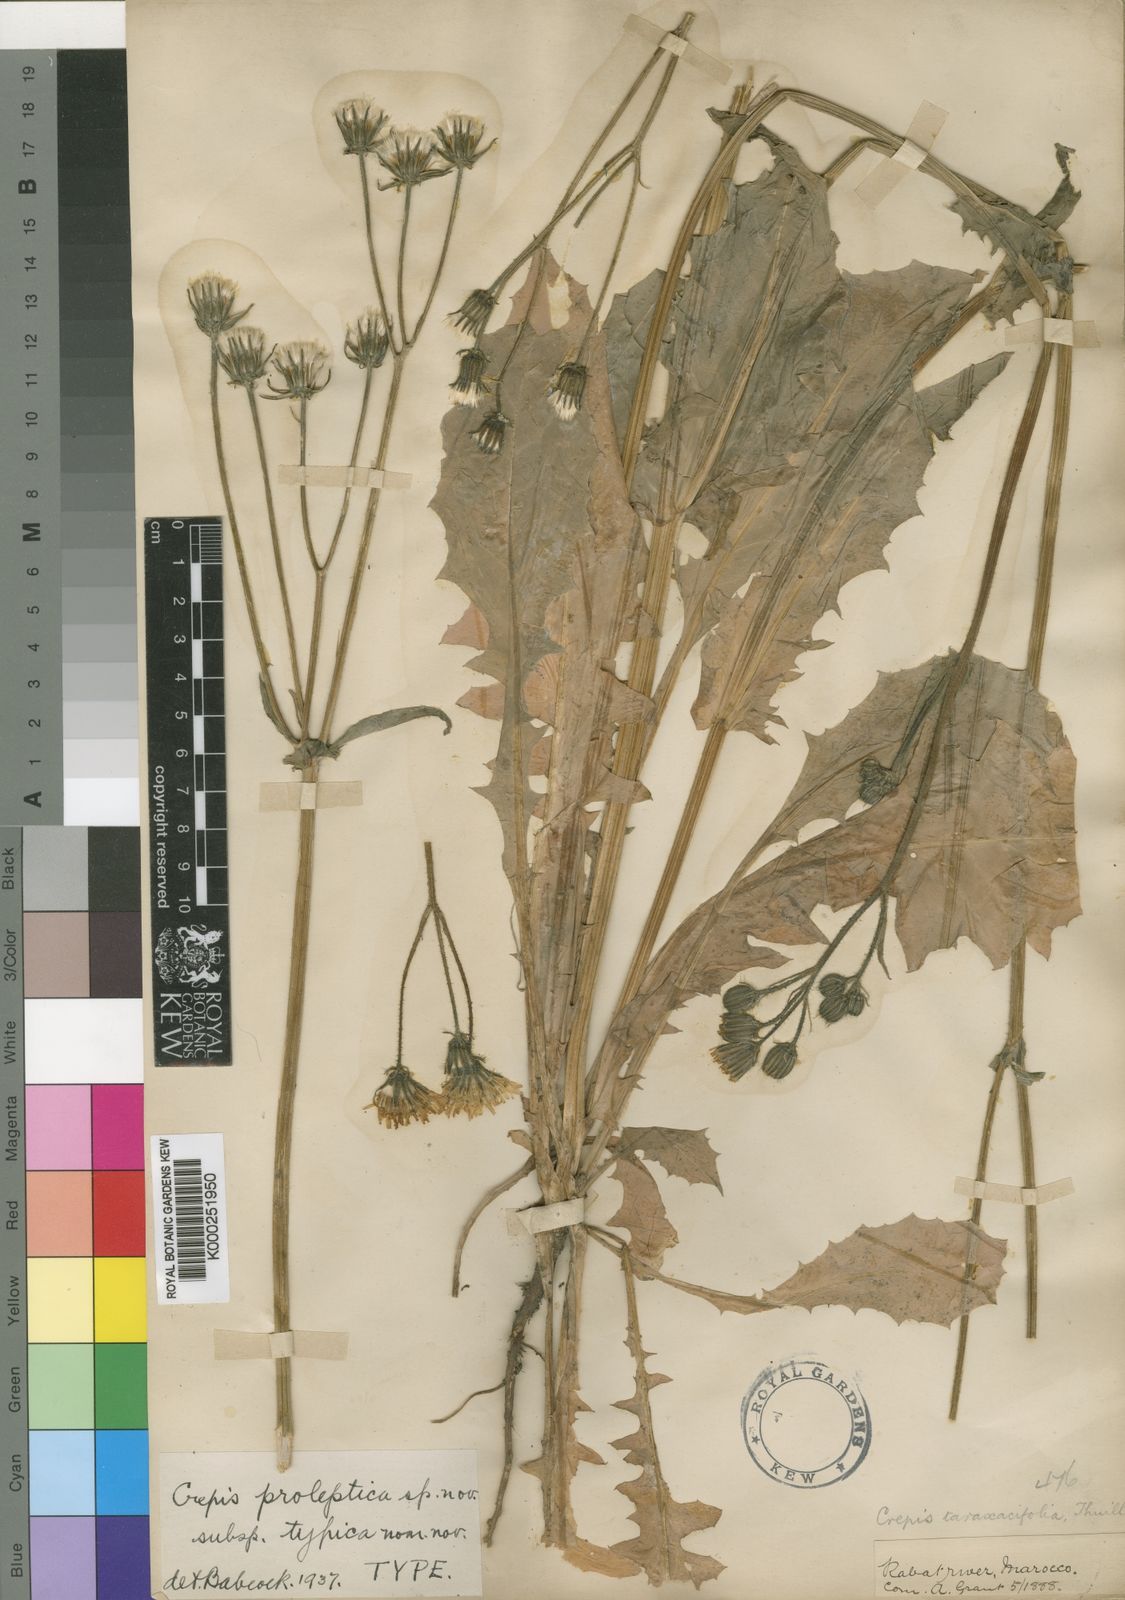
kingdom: Plantae
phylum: Tracheophyta
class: Magnoliopsida
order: Asterales
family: Asteraceae
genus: Crepis
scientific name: Crepis
